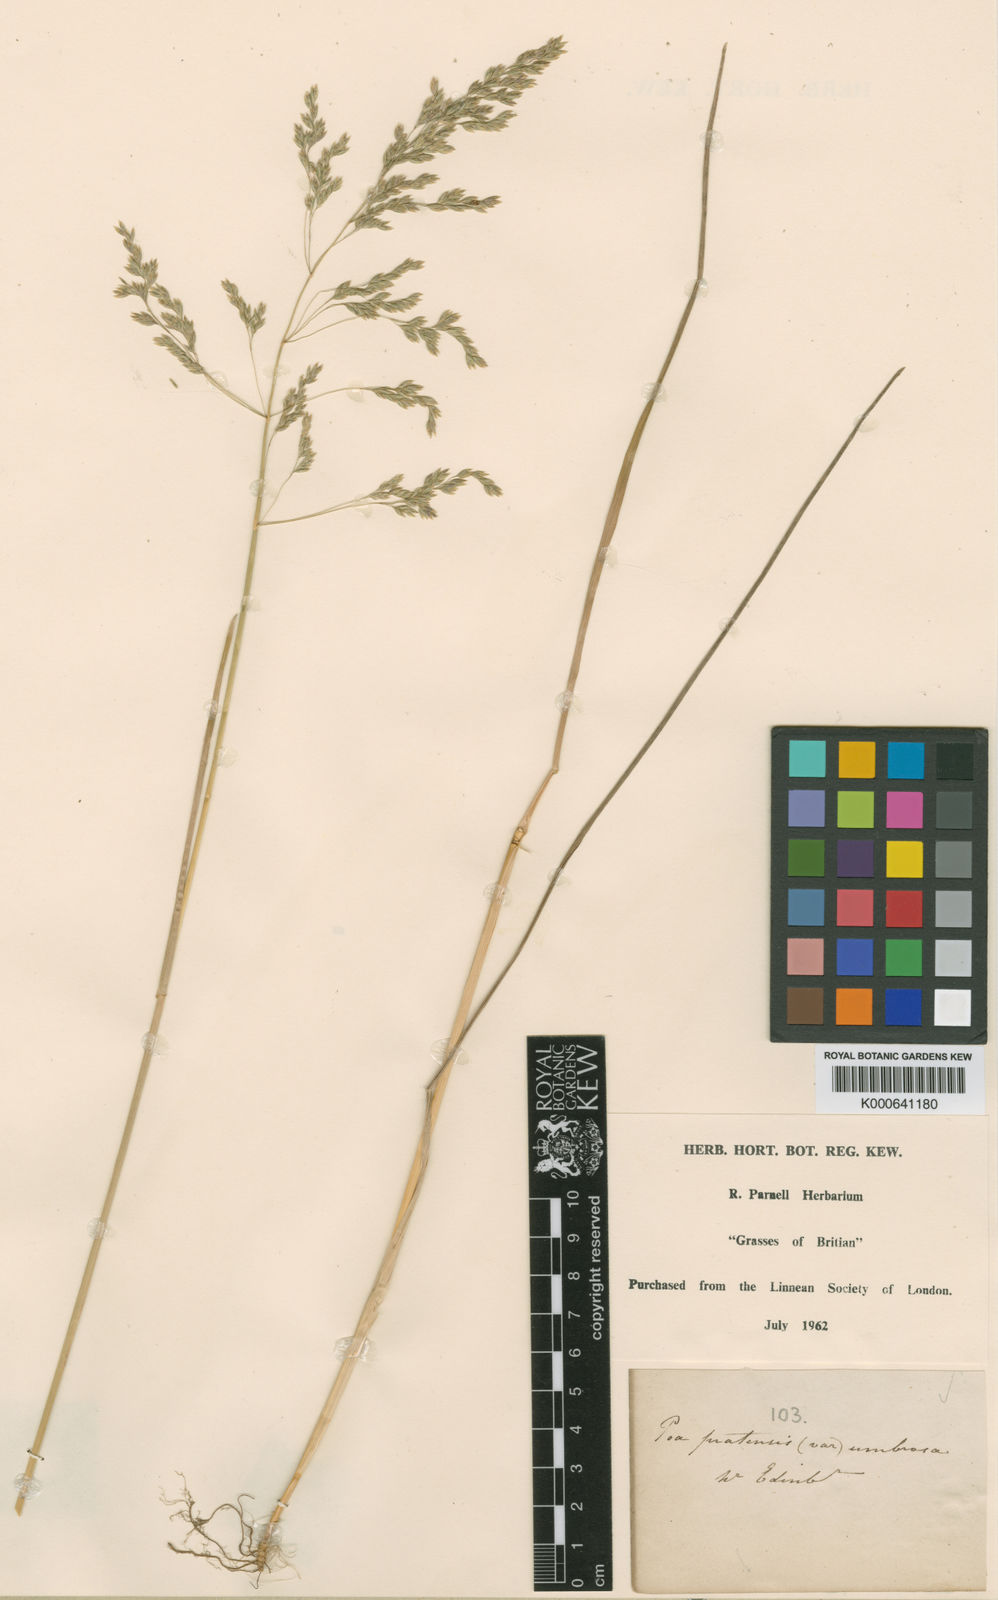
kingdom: Plantae
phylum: Tracheophyta
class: Liliopsida
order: Poales
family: Poaceae
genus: Poa
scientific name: Poa pratensis
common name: Kentucky bluegrass
